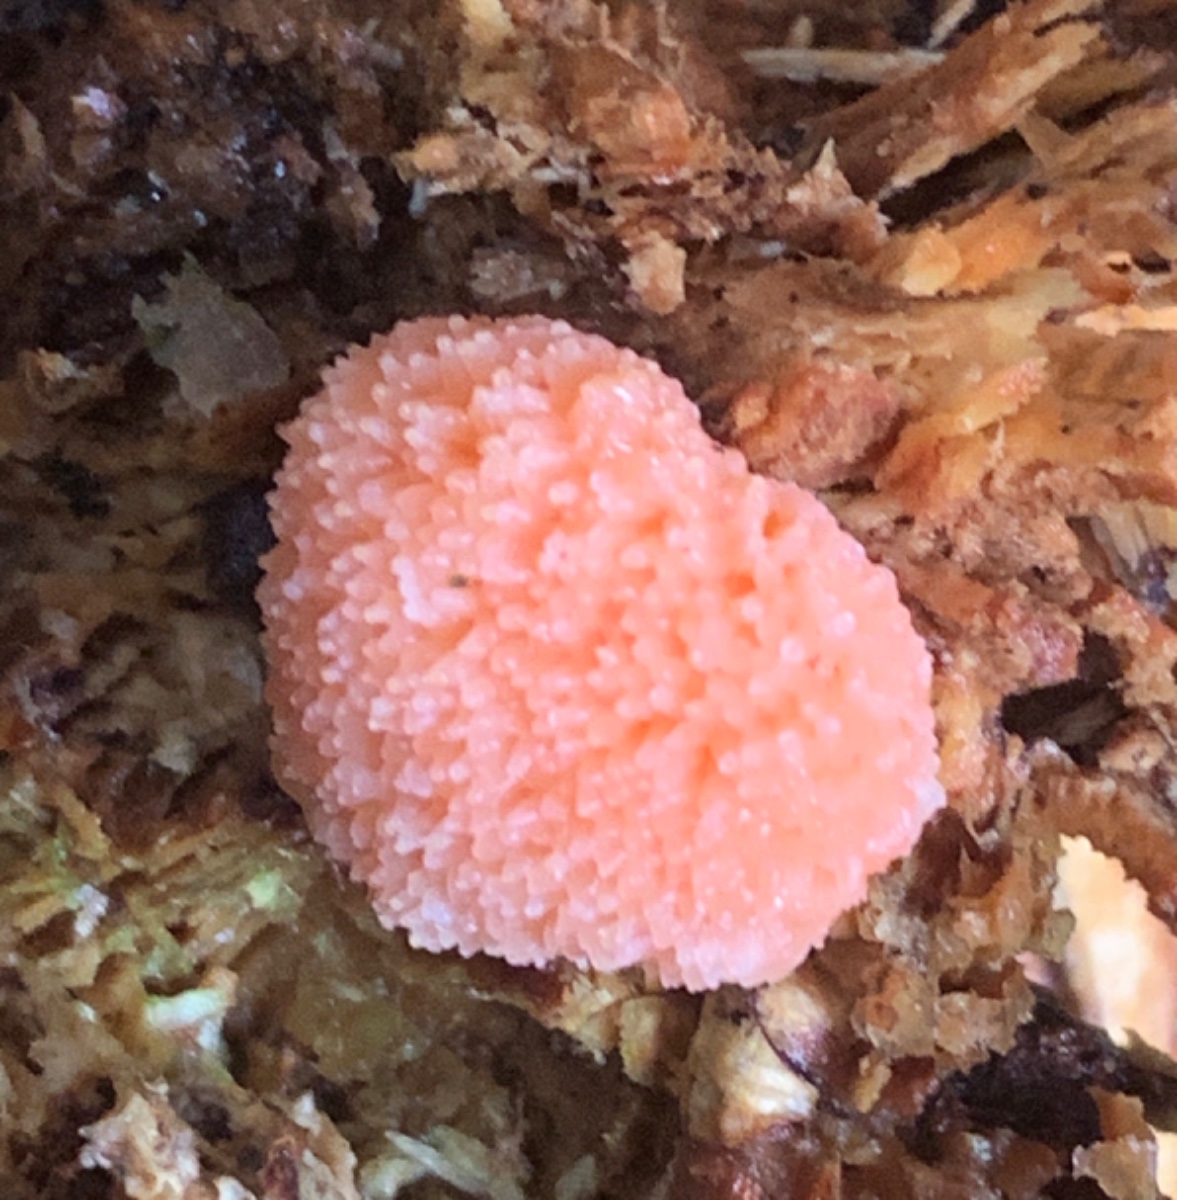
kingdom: Protozoa
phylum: Mycetozoa
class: Myxomycetes
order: Cribrariales
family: Tubiferaceae
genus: Tubifera
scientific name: Tubifera ferruginosa
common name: kanel-støvrør
